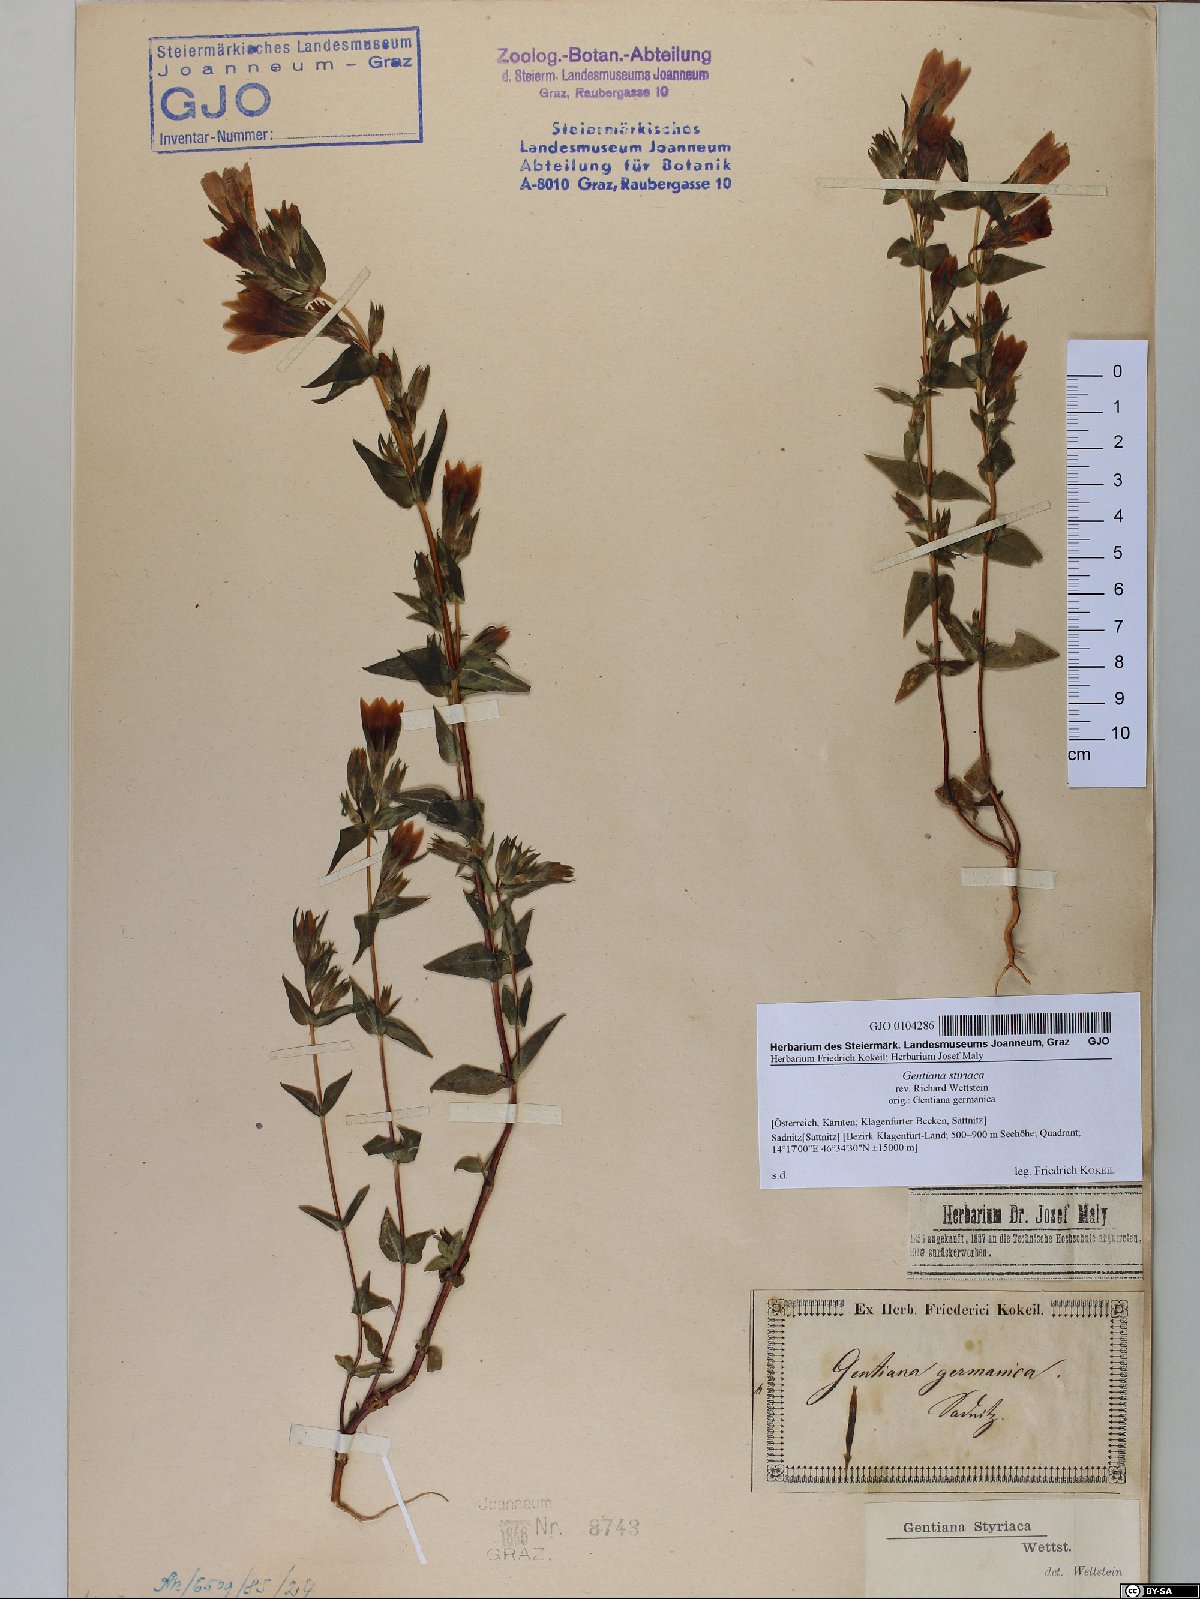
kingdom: Plantae
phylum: Tracheophyta
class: Magnoliopsida
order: Gentianales
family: Gentianaceae
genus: Gentianella
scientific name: Gentianella rhaetica
